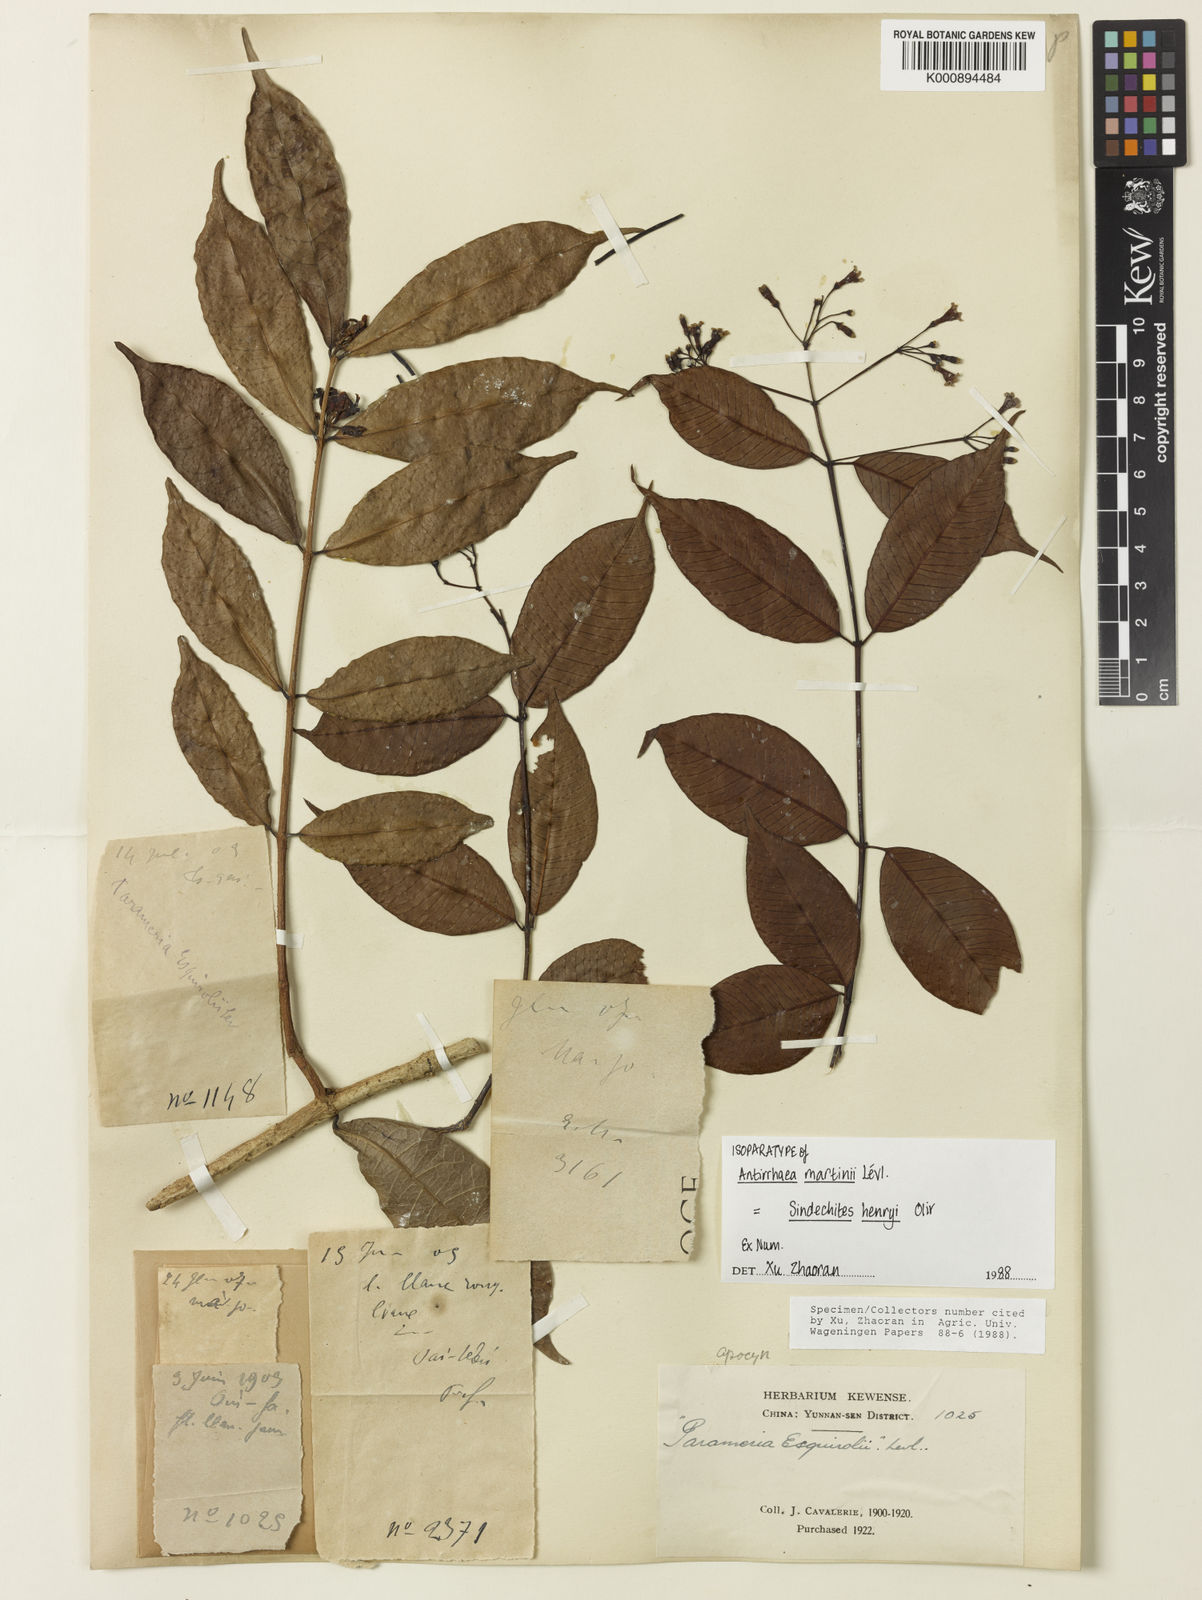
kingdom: Plantae
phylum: Tracheophyta
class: Magnoliopsida
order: Gentianales
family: Apocynaceae
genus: Sindechites
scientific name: Sindechites henryi
